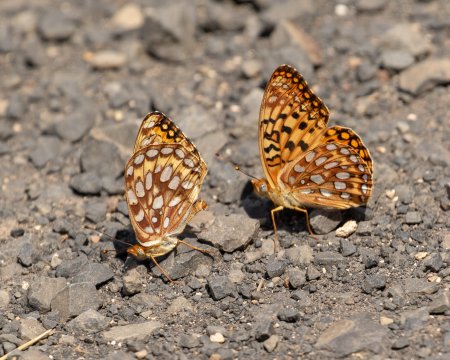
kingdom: Animalia
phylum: Arthropoda
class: Insecta
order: Lepidoptera
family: Nymphalidae
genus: Speyeria
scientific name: Speyeria zerene
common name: Zerene Fritillary
